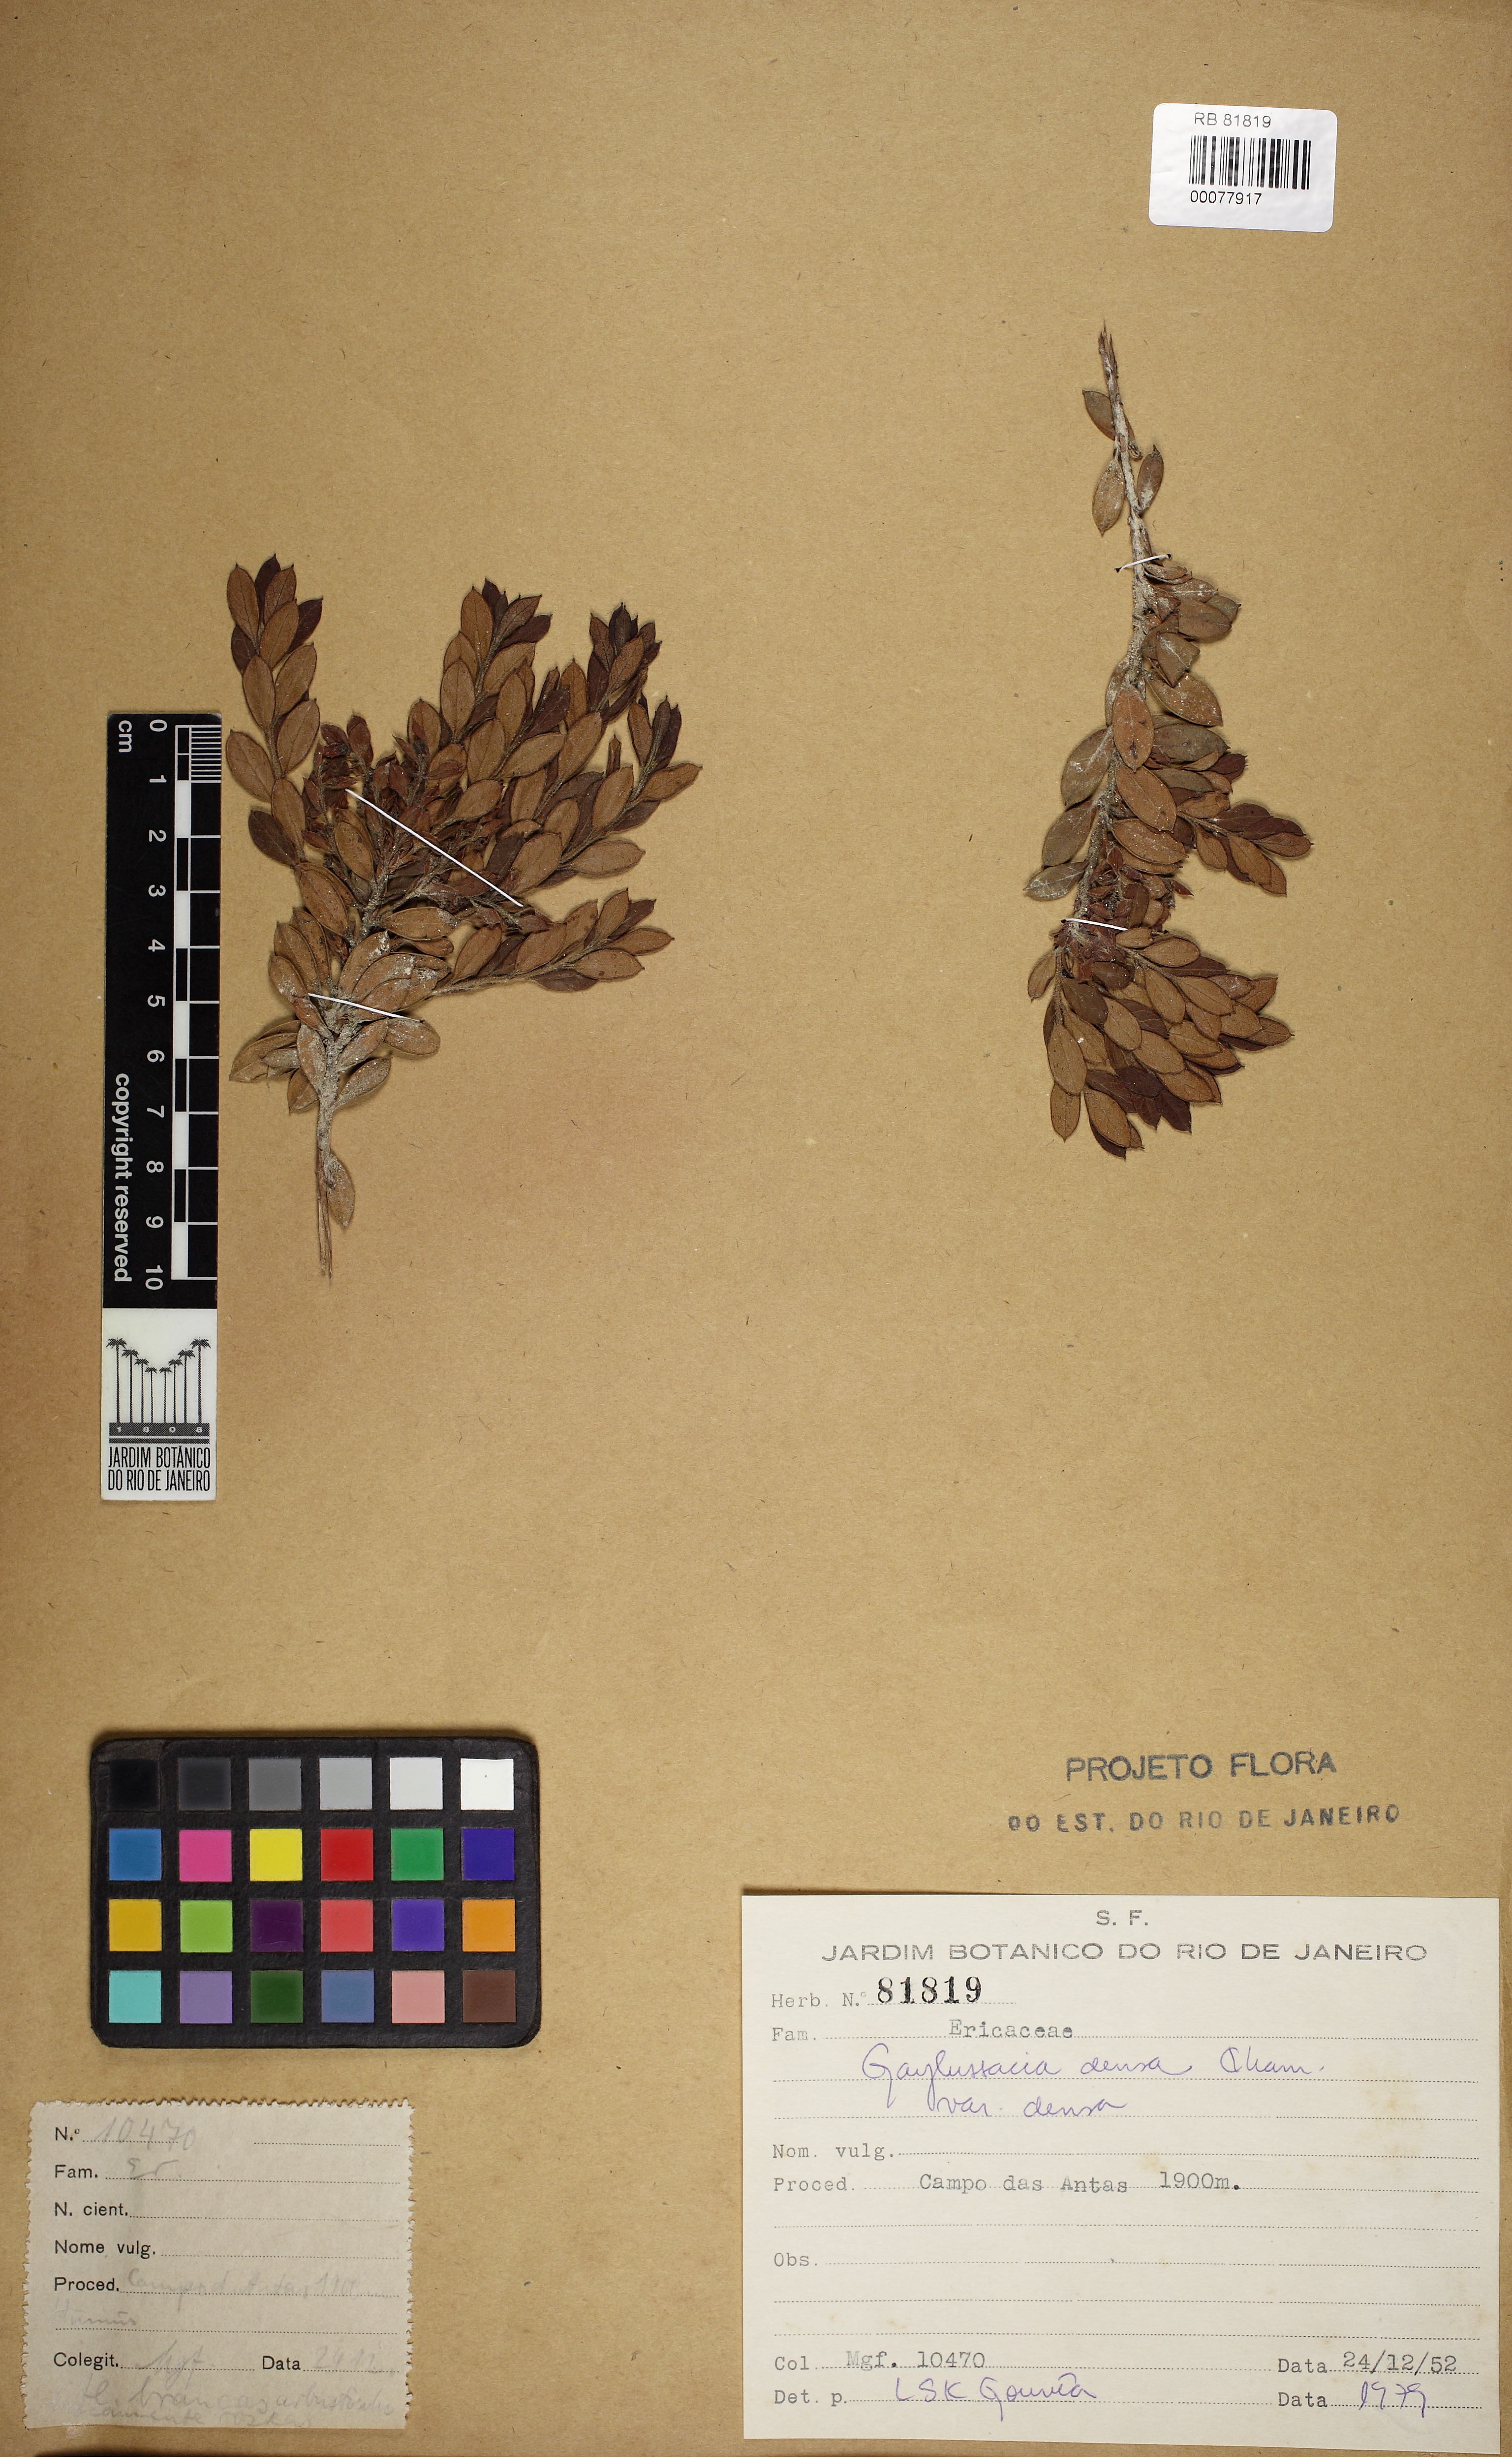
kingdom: Plantae
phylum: Tracheophyta
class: Magnoliopsida
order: Ericales
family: Ericaceae
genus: Gaylussacia
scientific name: Gaylussacia densa
